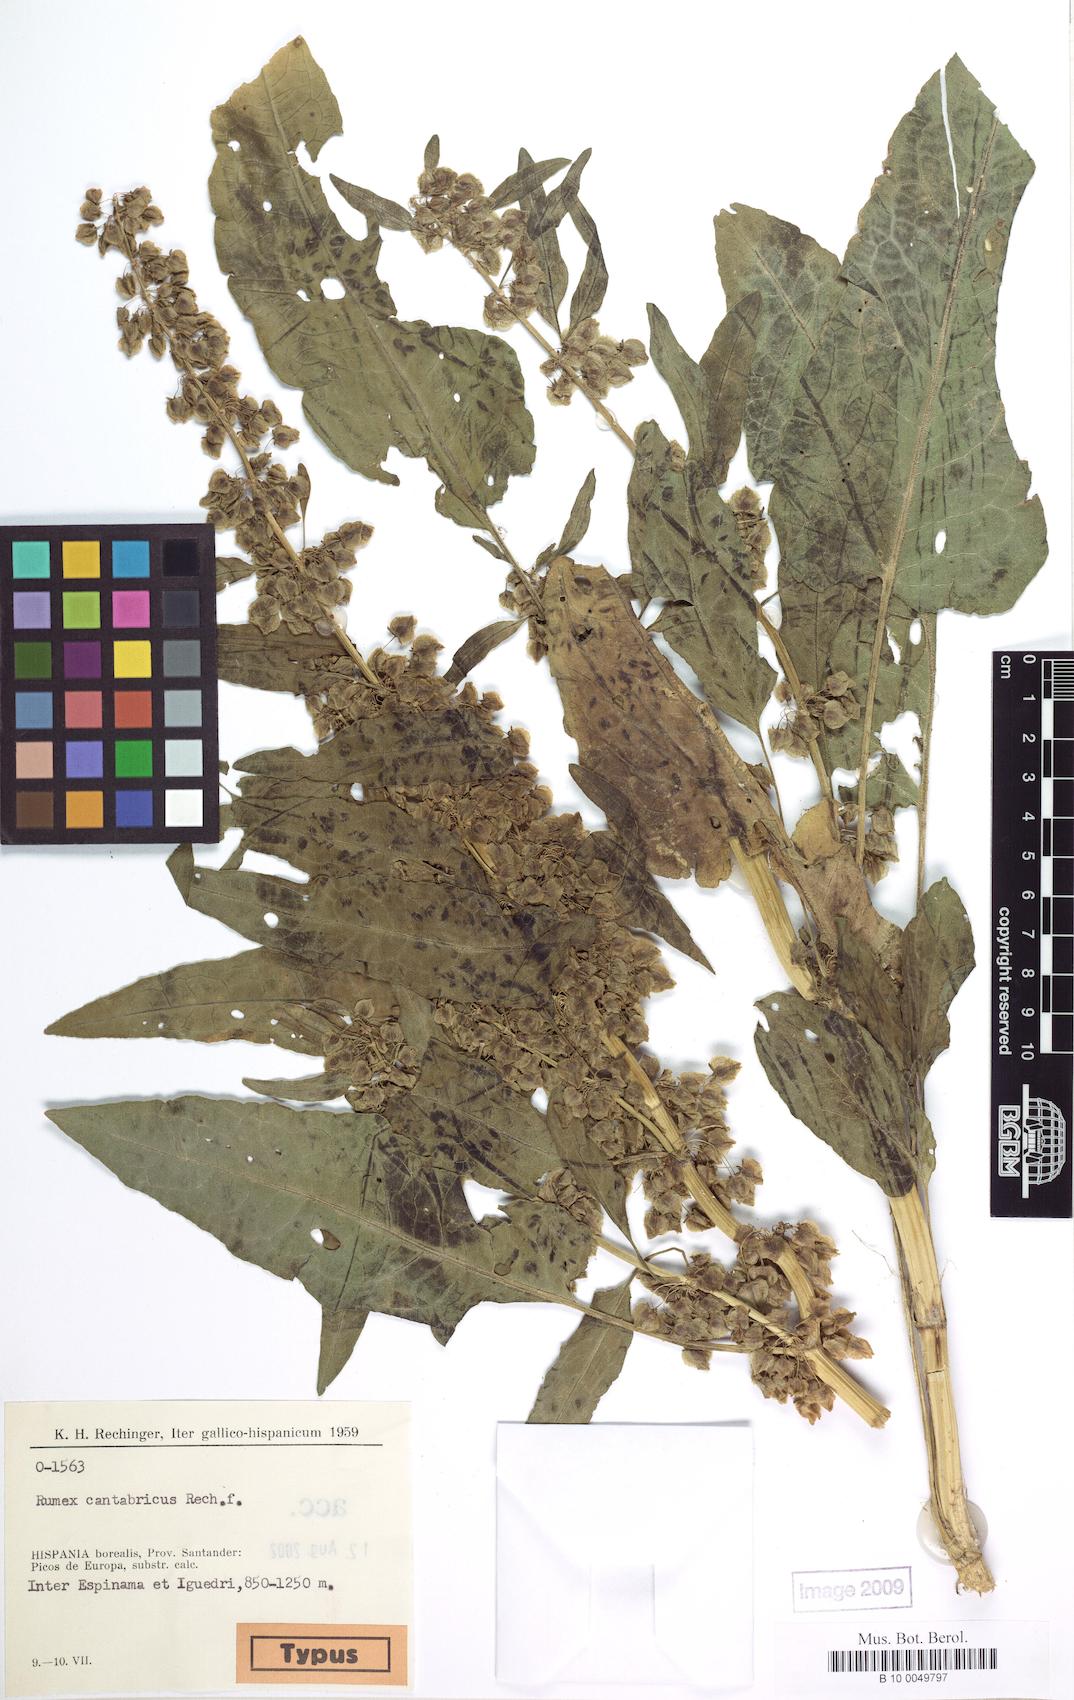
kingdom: Plantae
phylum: Tracheophyta
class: Magnoliopsida
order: Caryophyllales
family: Polygonaceae
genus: Rumex
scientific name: Rumex aquitanicus
